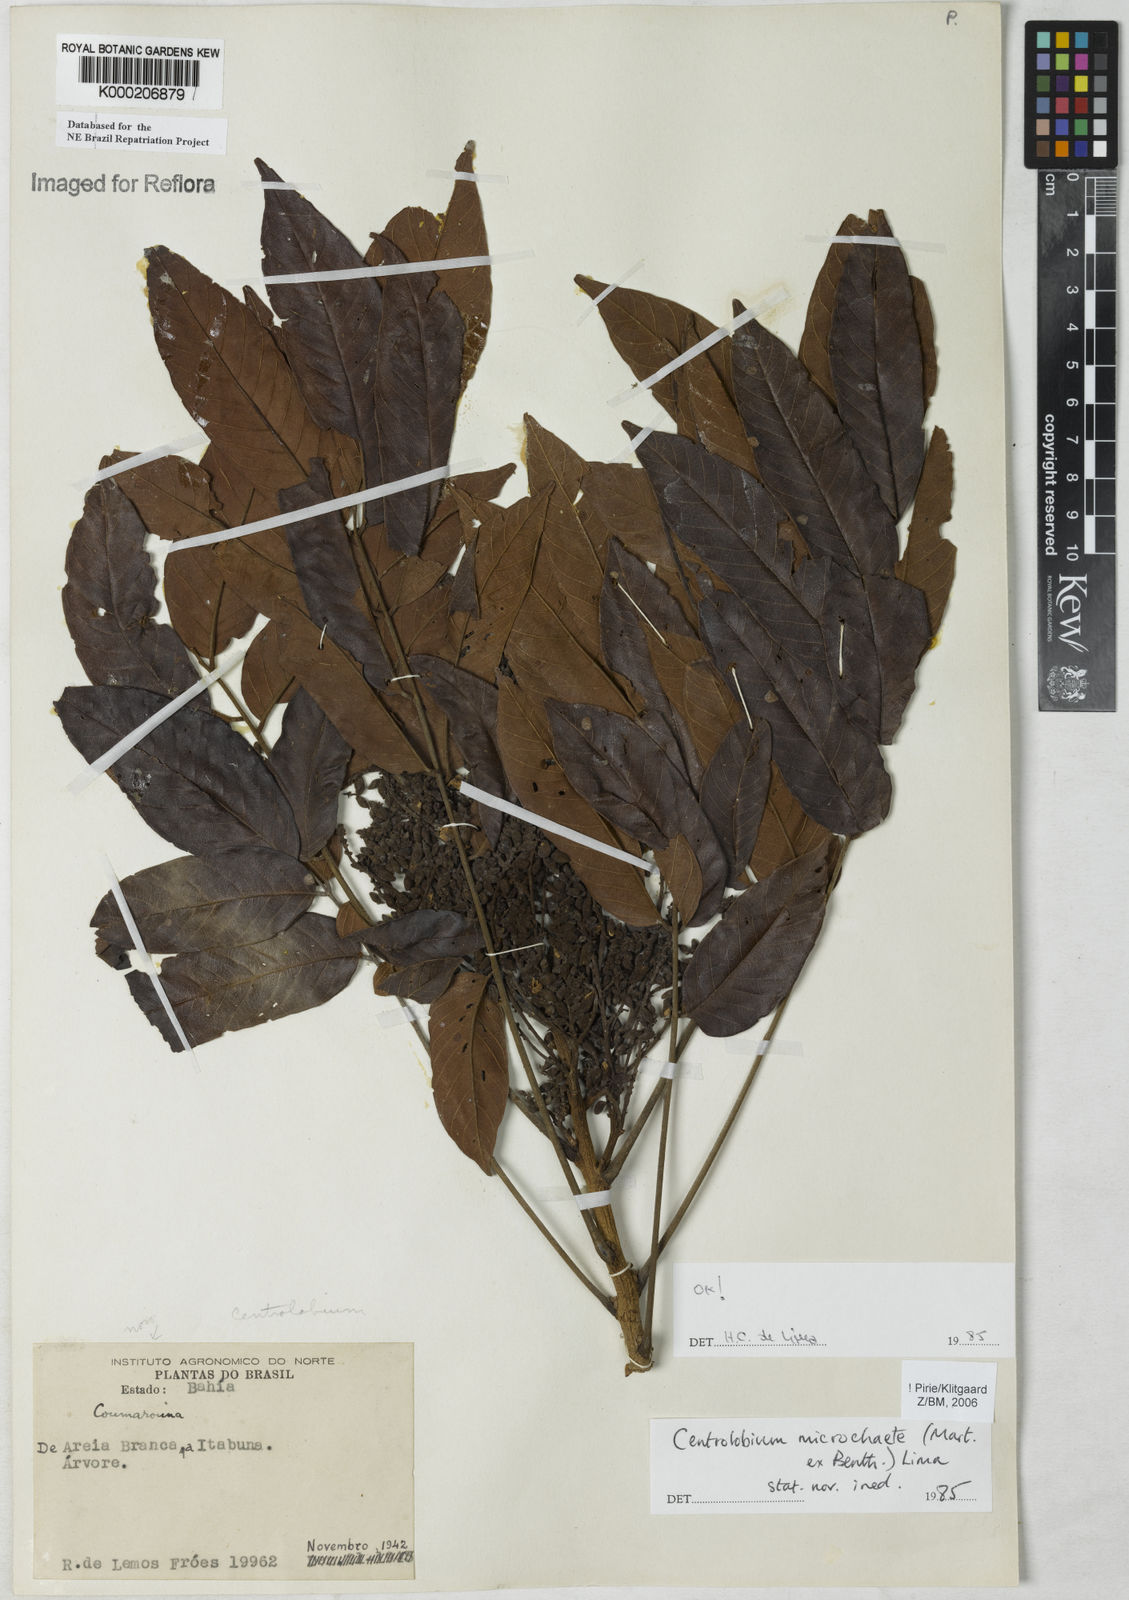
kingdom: Plantae
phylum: Tracheophyta
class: Magnoliopsida
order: Fabales
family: Fabaceae
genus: Centrolobium
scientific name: Centrolobium microchaete
